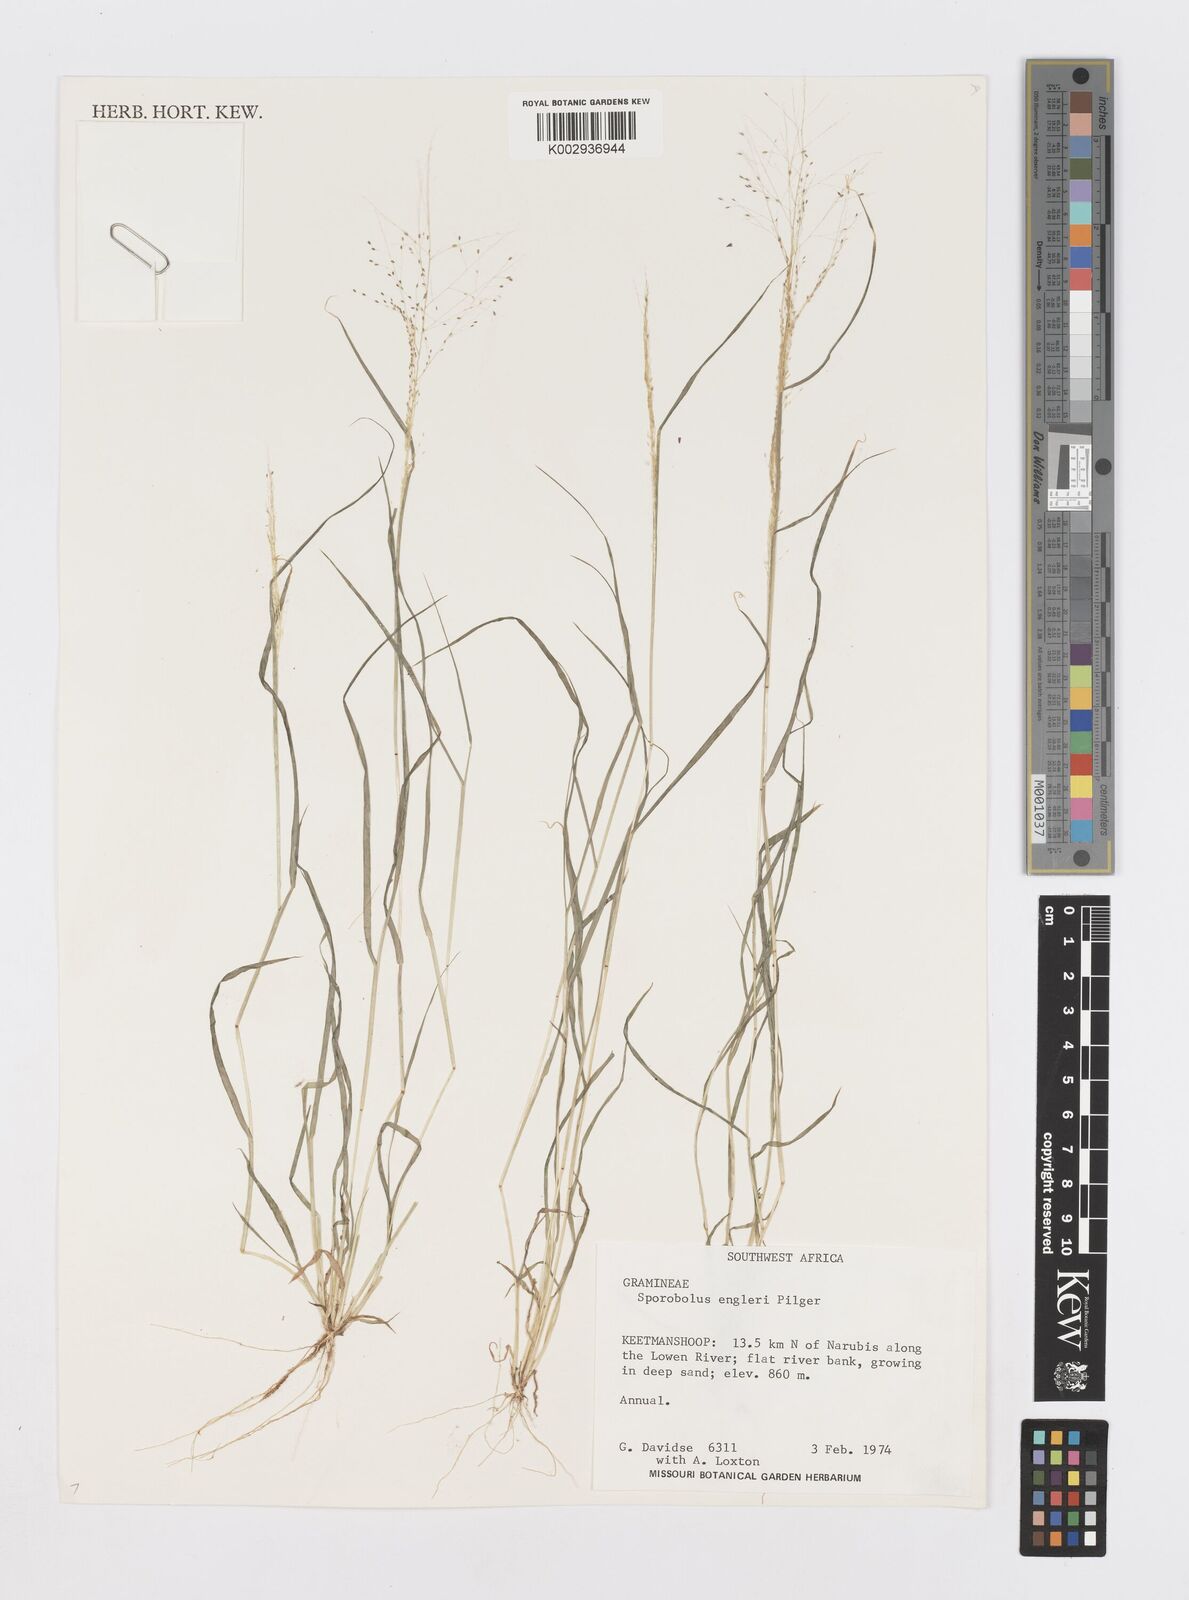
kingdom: Plantae
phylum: Tracheophyta
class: Liliopsida
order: Poales
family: Poaceae
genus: Sporobolus
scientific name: Sporobolus engleri
